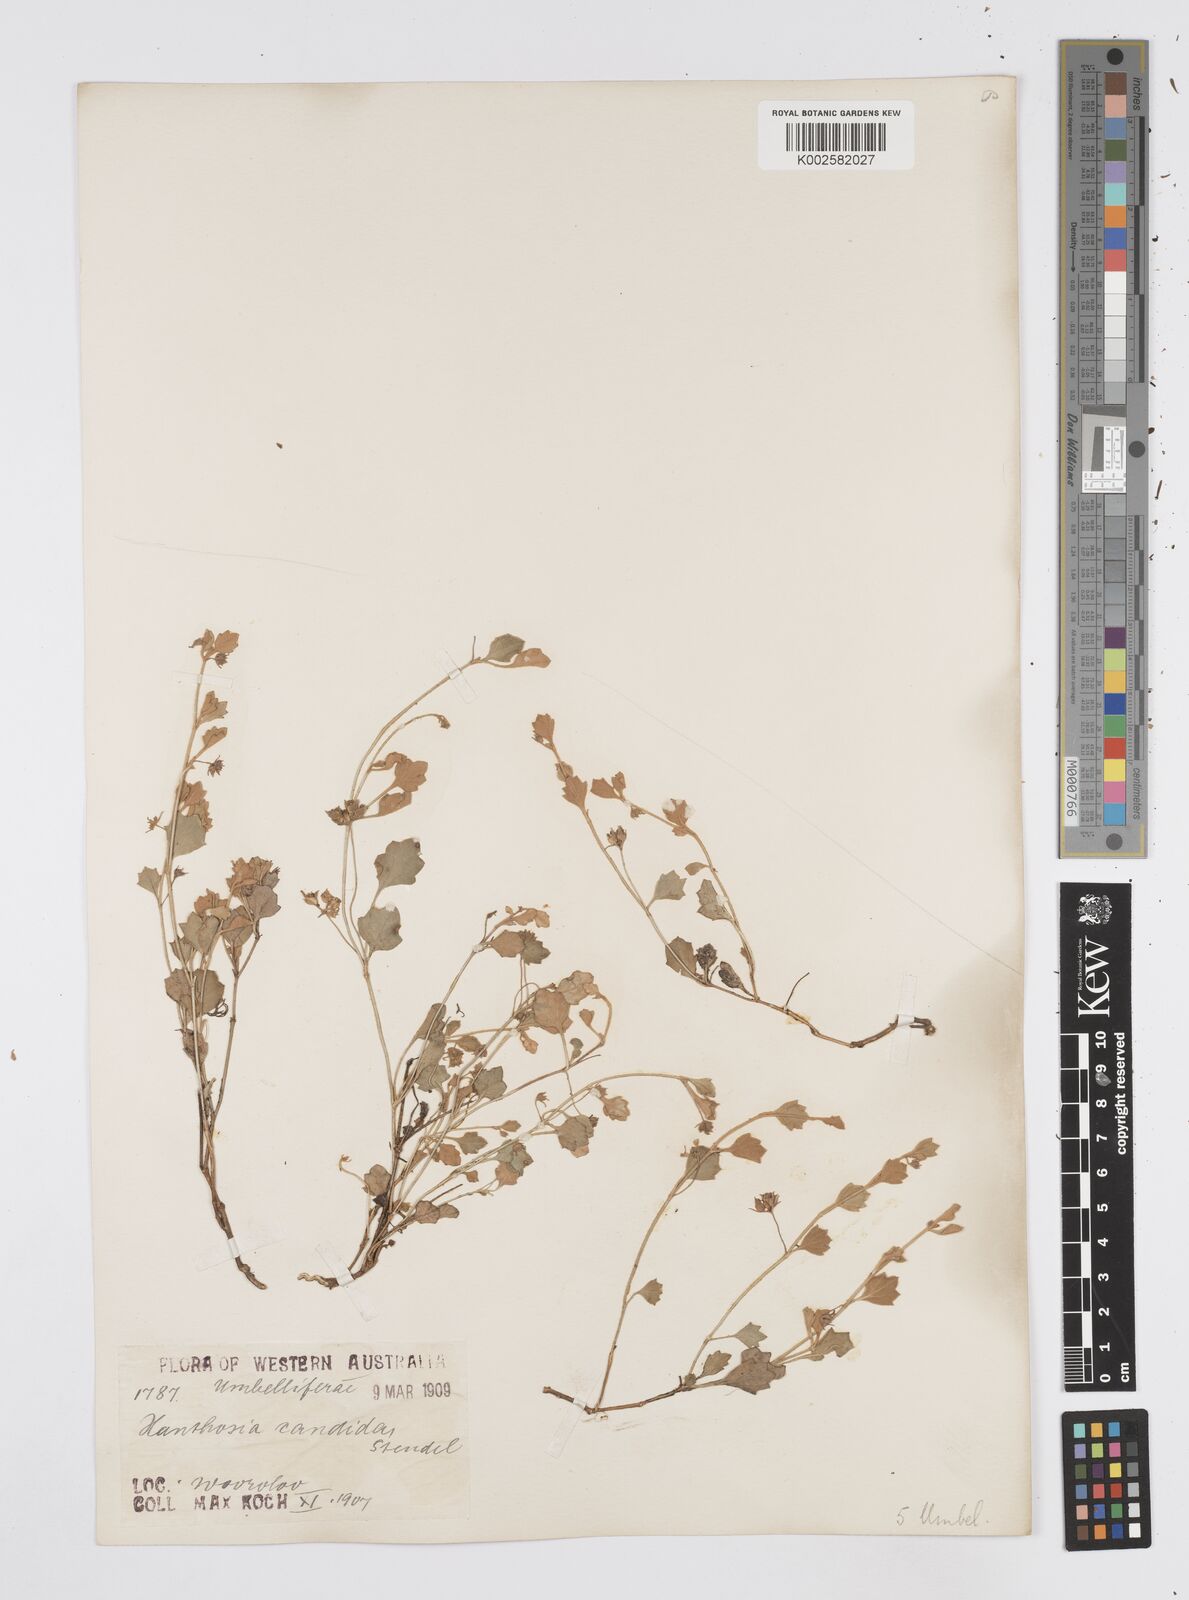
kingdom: Plantae
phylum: Tracheophyta
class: Magnoliopsida
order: Apiales
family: Apiaceae
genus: Xanthosia
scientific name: Xanthosia candida
